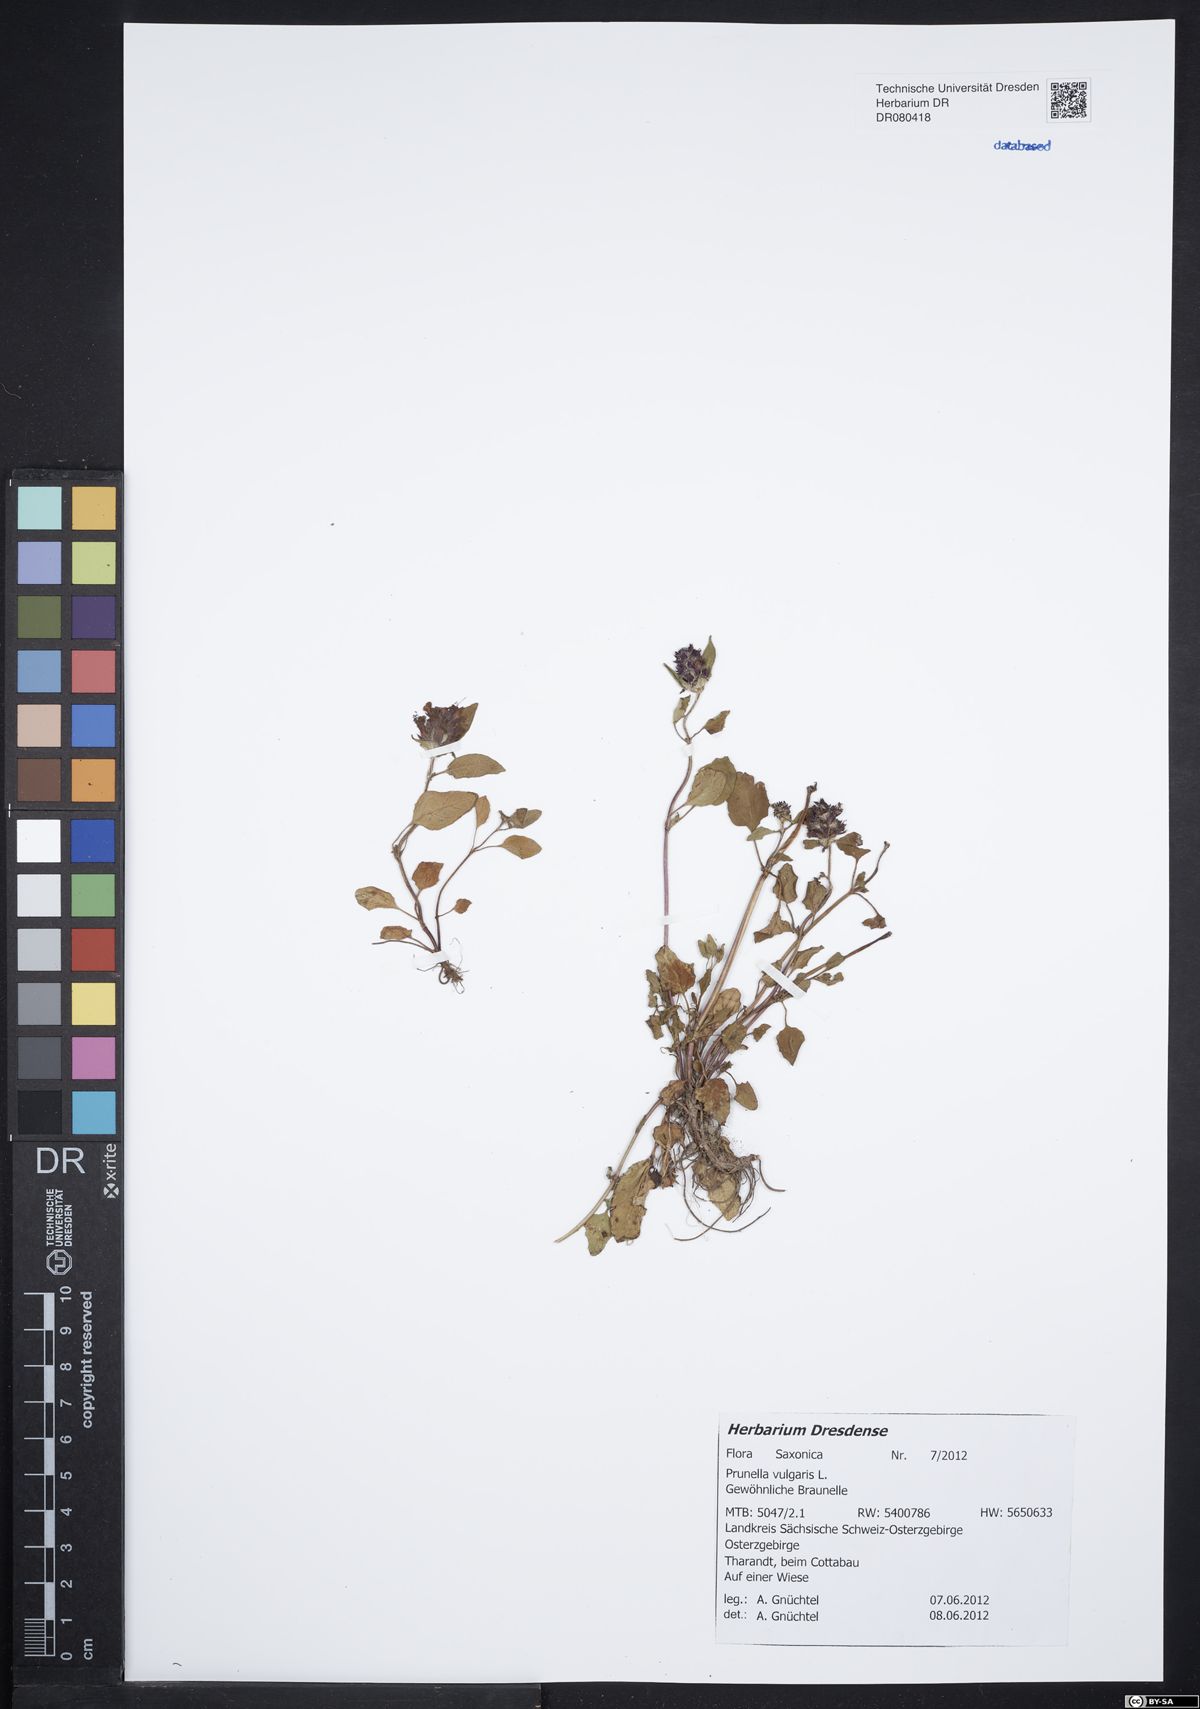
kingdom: Plantae
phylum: Tracheophyta
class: Magnoliopsida
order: Lamiales
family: Lamiaceae
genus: Prunella
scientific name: Prunella vulgaris
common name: Heal-all
